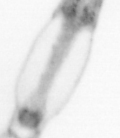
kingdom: Animalia
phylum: Arthropoda
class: Copepoda
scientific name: Copepoda
